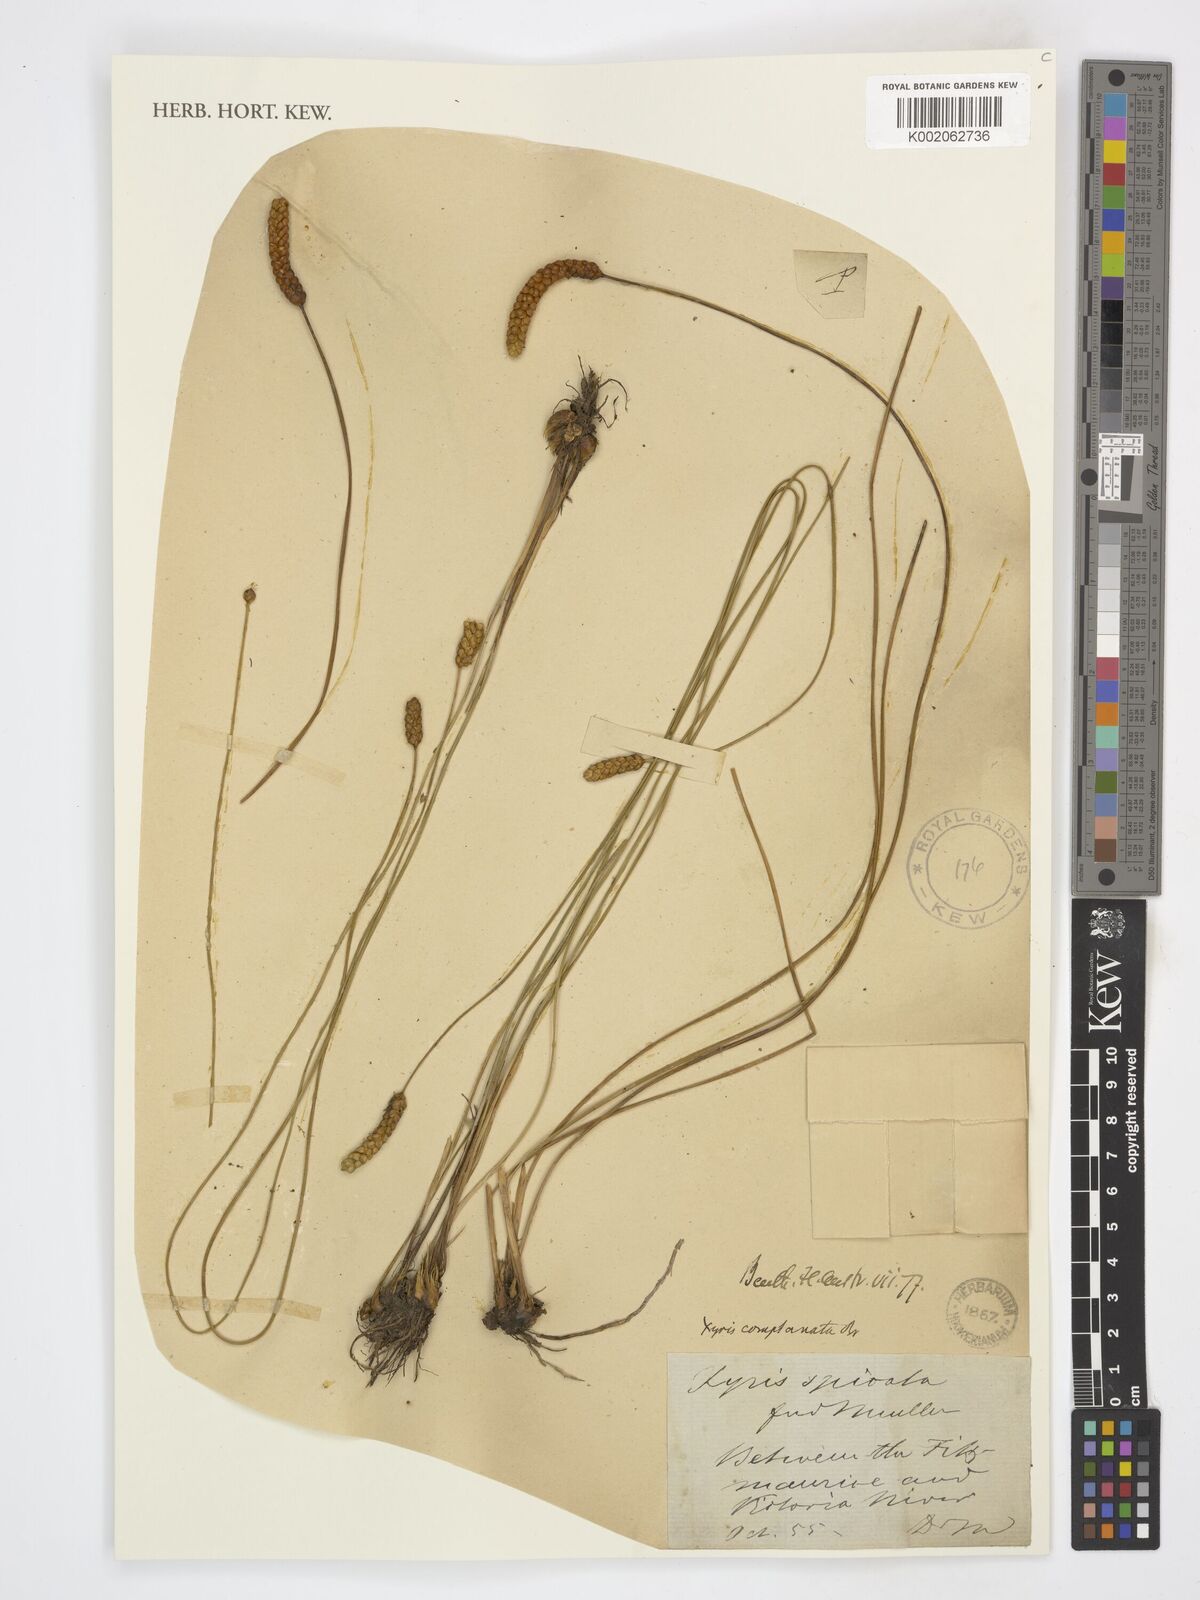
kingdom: Plantae
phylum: Tracheophyta
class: Liliopsida
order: Poales
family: Xyridaceae
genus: Xyris
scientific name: Xyris complanata
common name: Hawai'i yelloweyed grass
